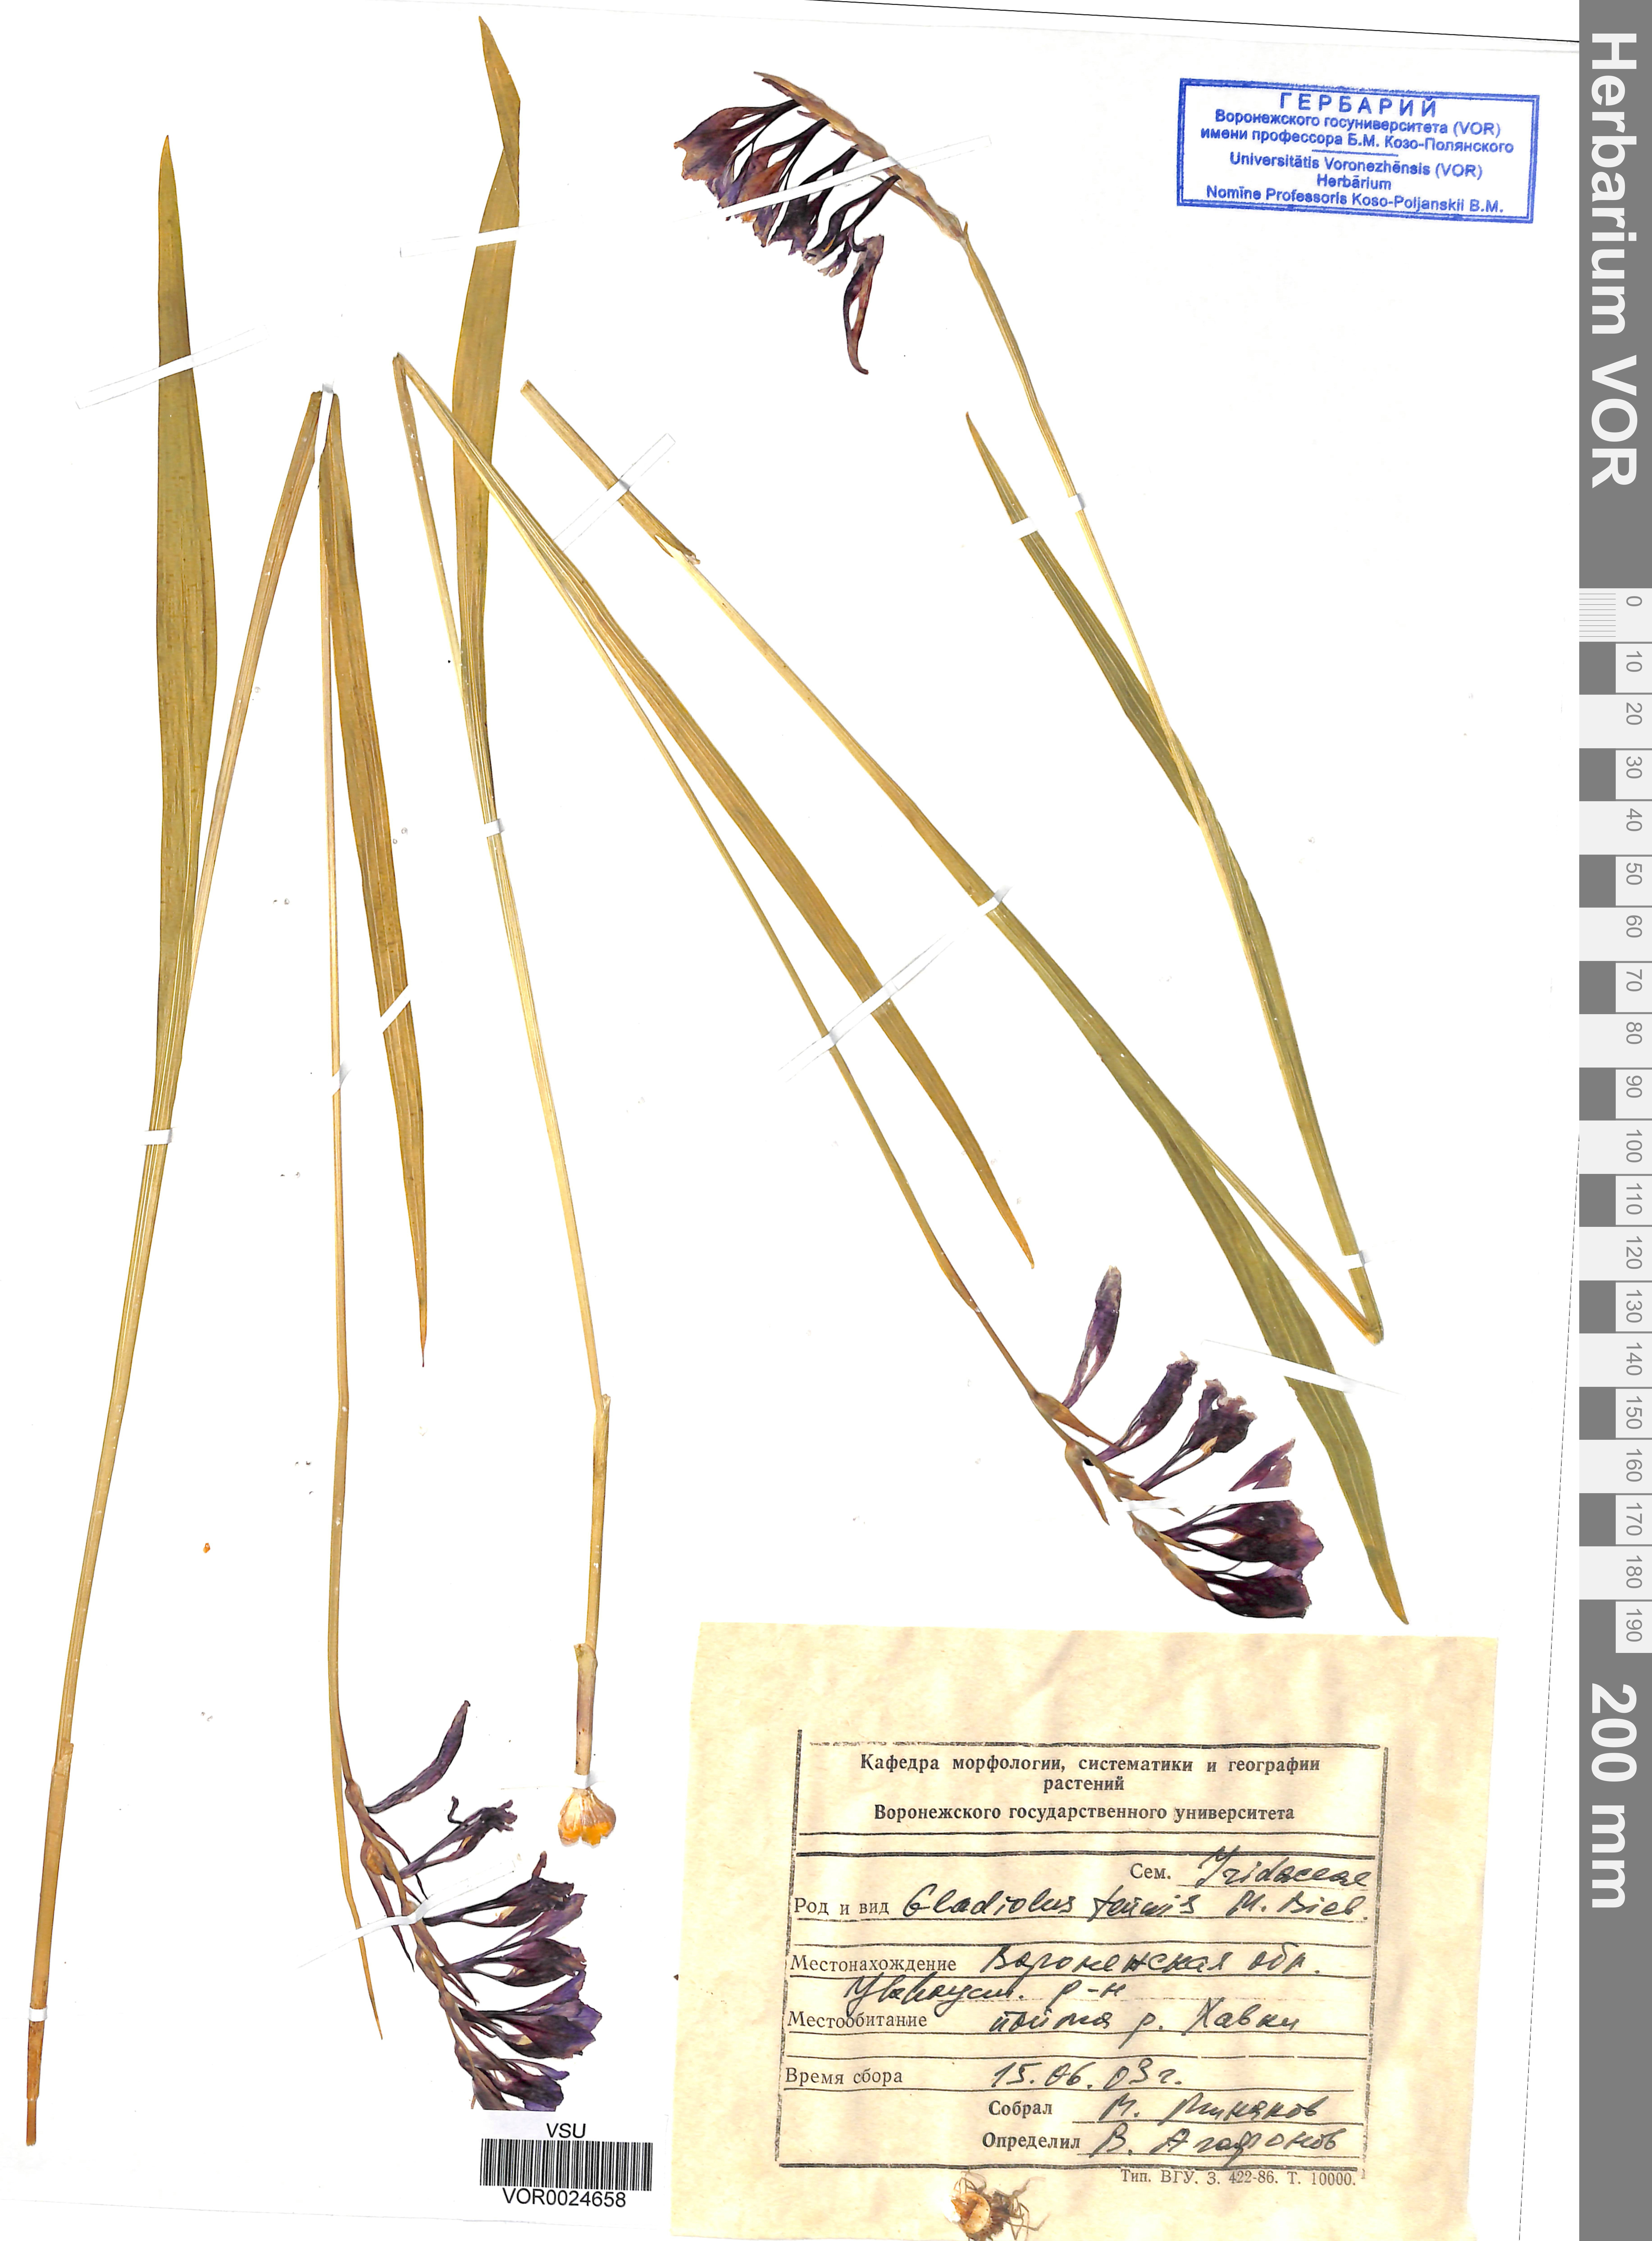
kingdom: Plantae
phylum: Tracheophyta
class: Liliopsida
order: Asparagales
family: Iridaceae
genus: Gladiolus
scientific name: Gladiolus tenuis
